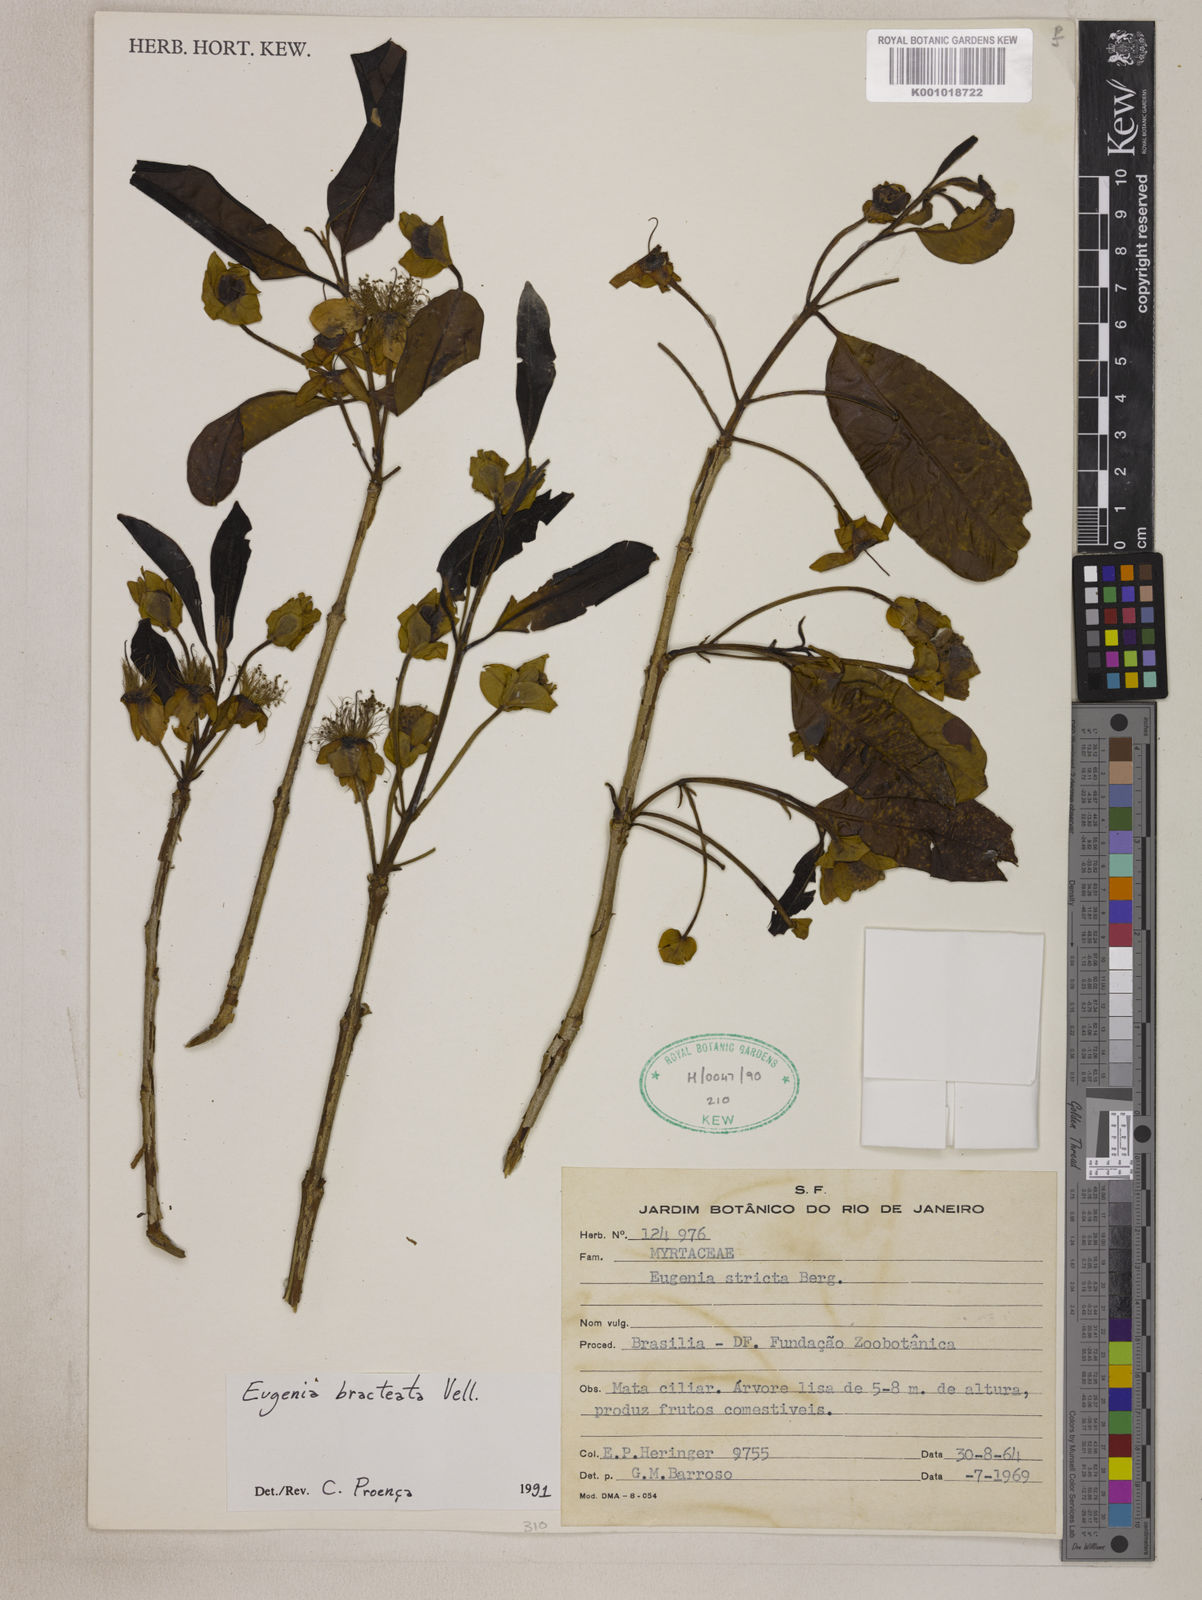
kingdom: Plantae
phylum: Tracheophyta
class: Magnoliopsida
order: Myrtales
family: Myrtaceae
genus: Eugenia
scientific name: Eugenia involucrata
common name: Cherry-of-the-rio grande
